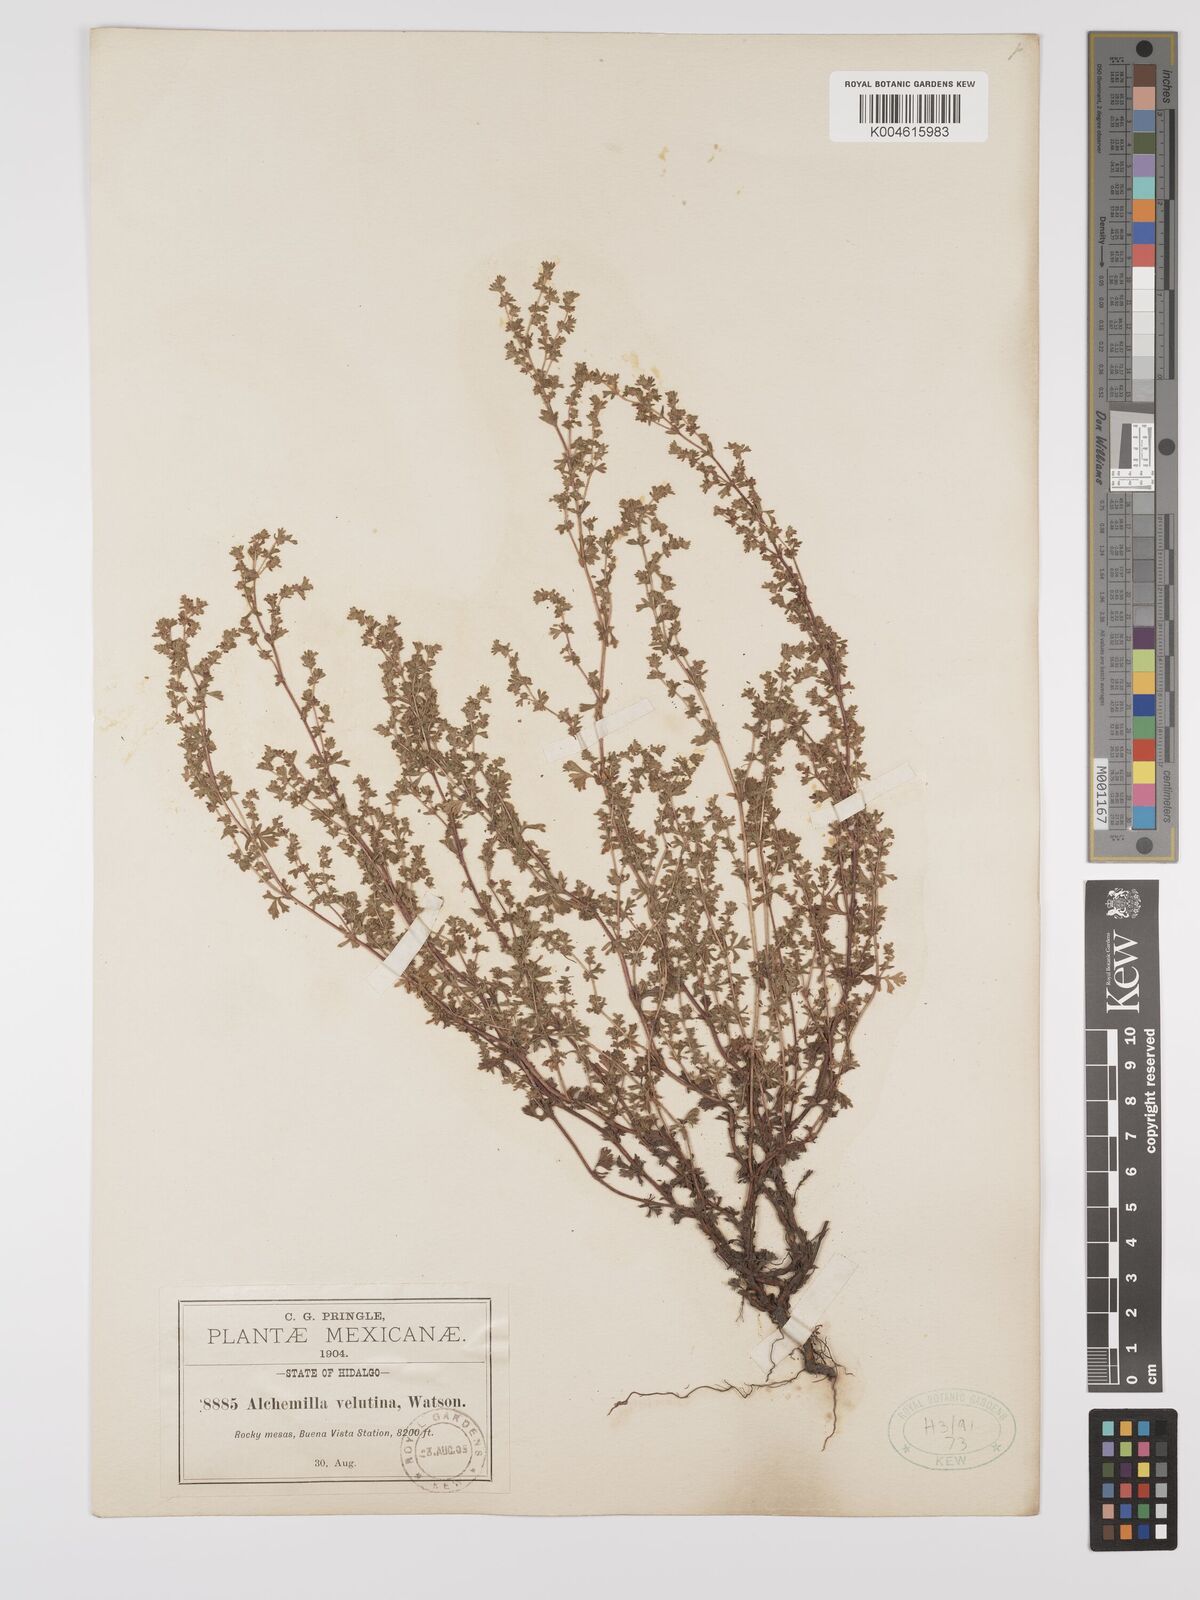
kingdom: Plantae
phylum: Tracheophyta
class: Magnoliopsida
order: Rosales
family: Rosaceae
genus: Lachemilla
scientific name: Lachemilla velutina
